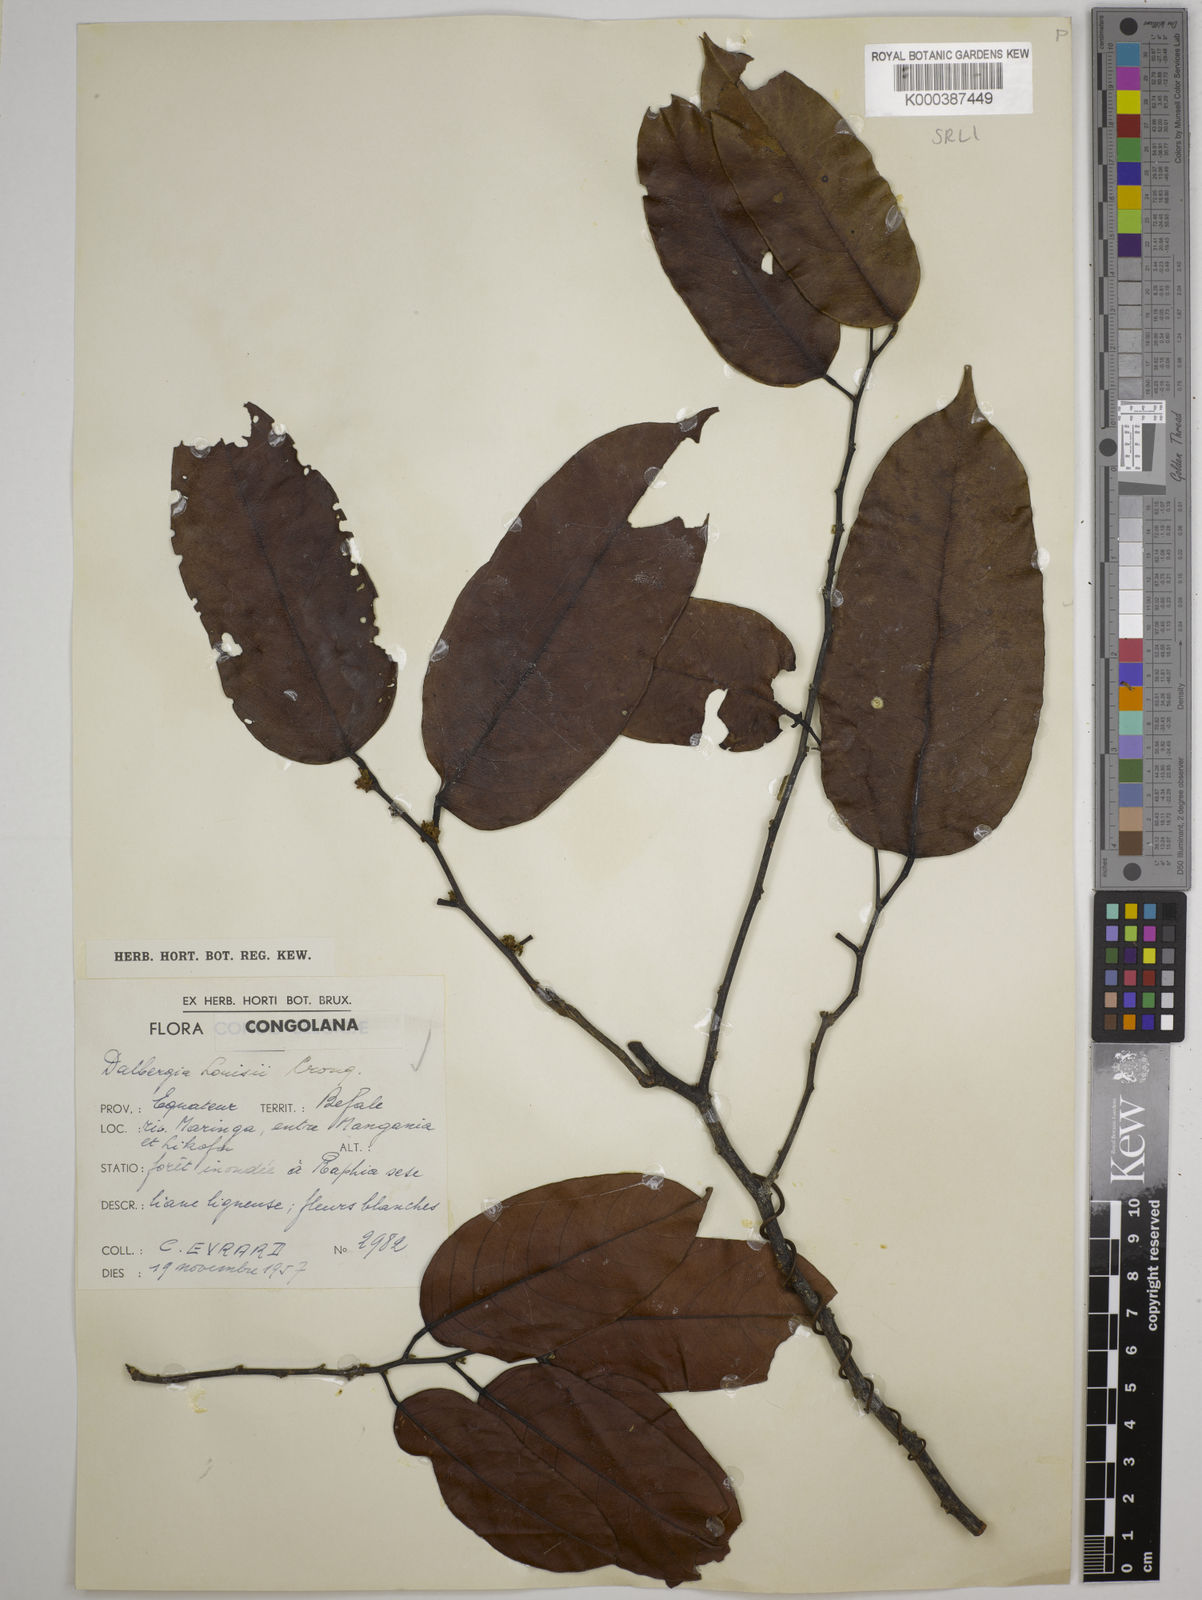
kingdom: Plantae
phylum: Tracheophyta
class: Magnoliopsida
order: Fabales
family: Fabaceae
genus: Dalbergia
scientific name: Dalbergia louisii
